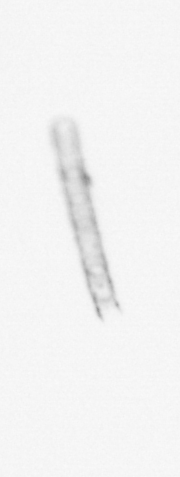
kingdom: Chromista
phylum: Ochrophyta
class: Bacillariophyceae
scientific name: Bacillariophyceae
